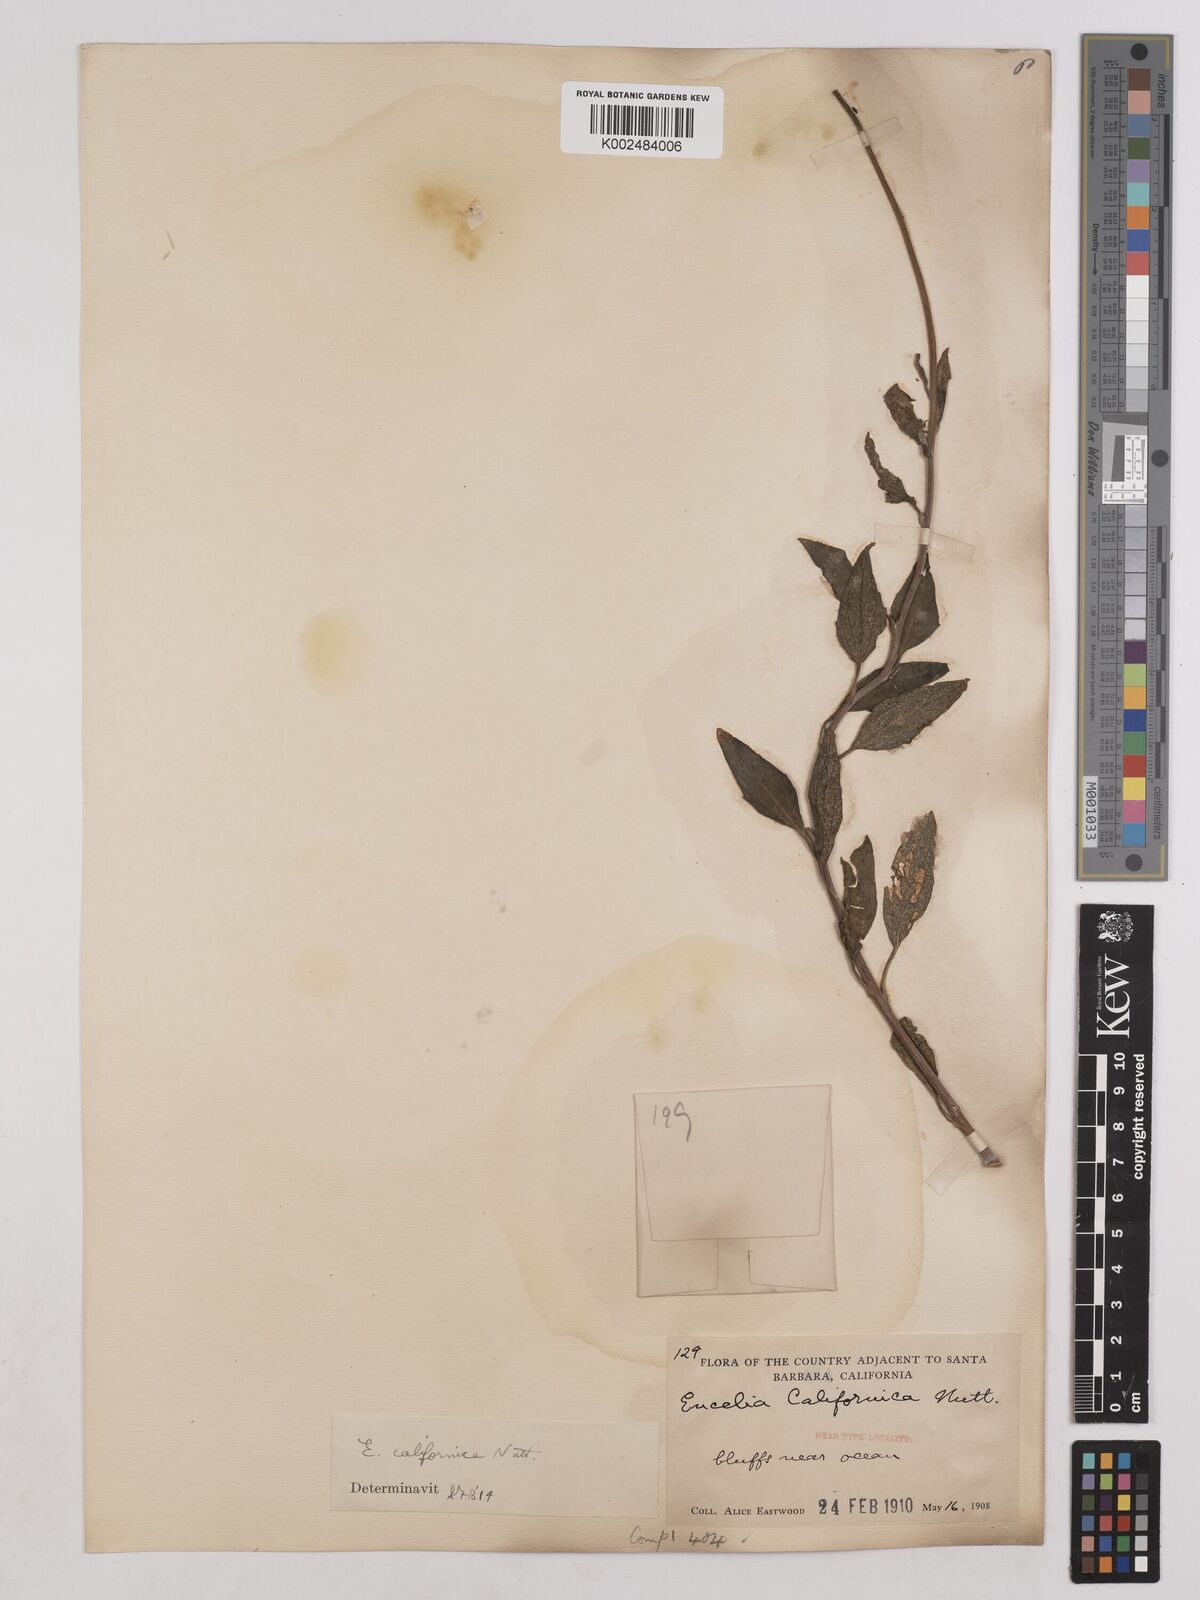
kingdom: Plantae
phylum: Tracheophyta
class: Magnoliopsida
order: Asterales
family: Asteraceae
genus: Encelia
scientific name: Encelia californica
